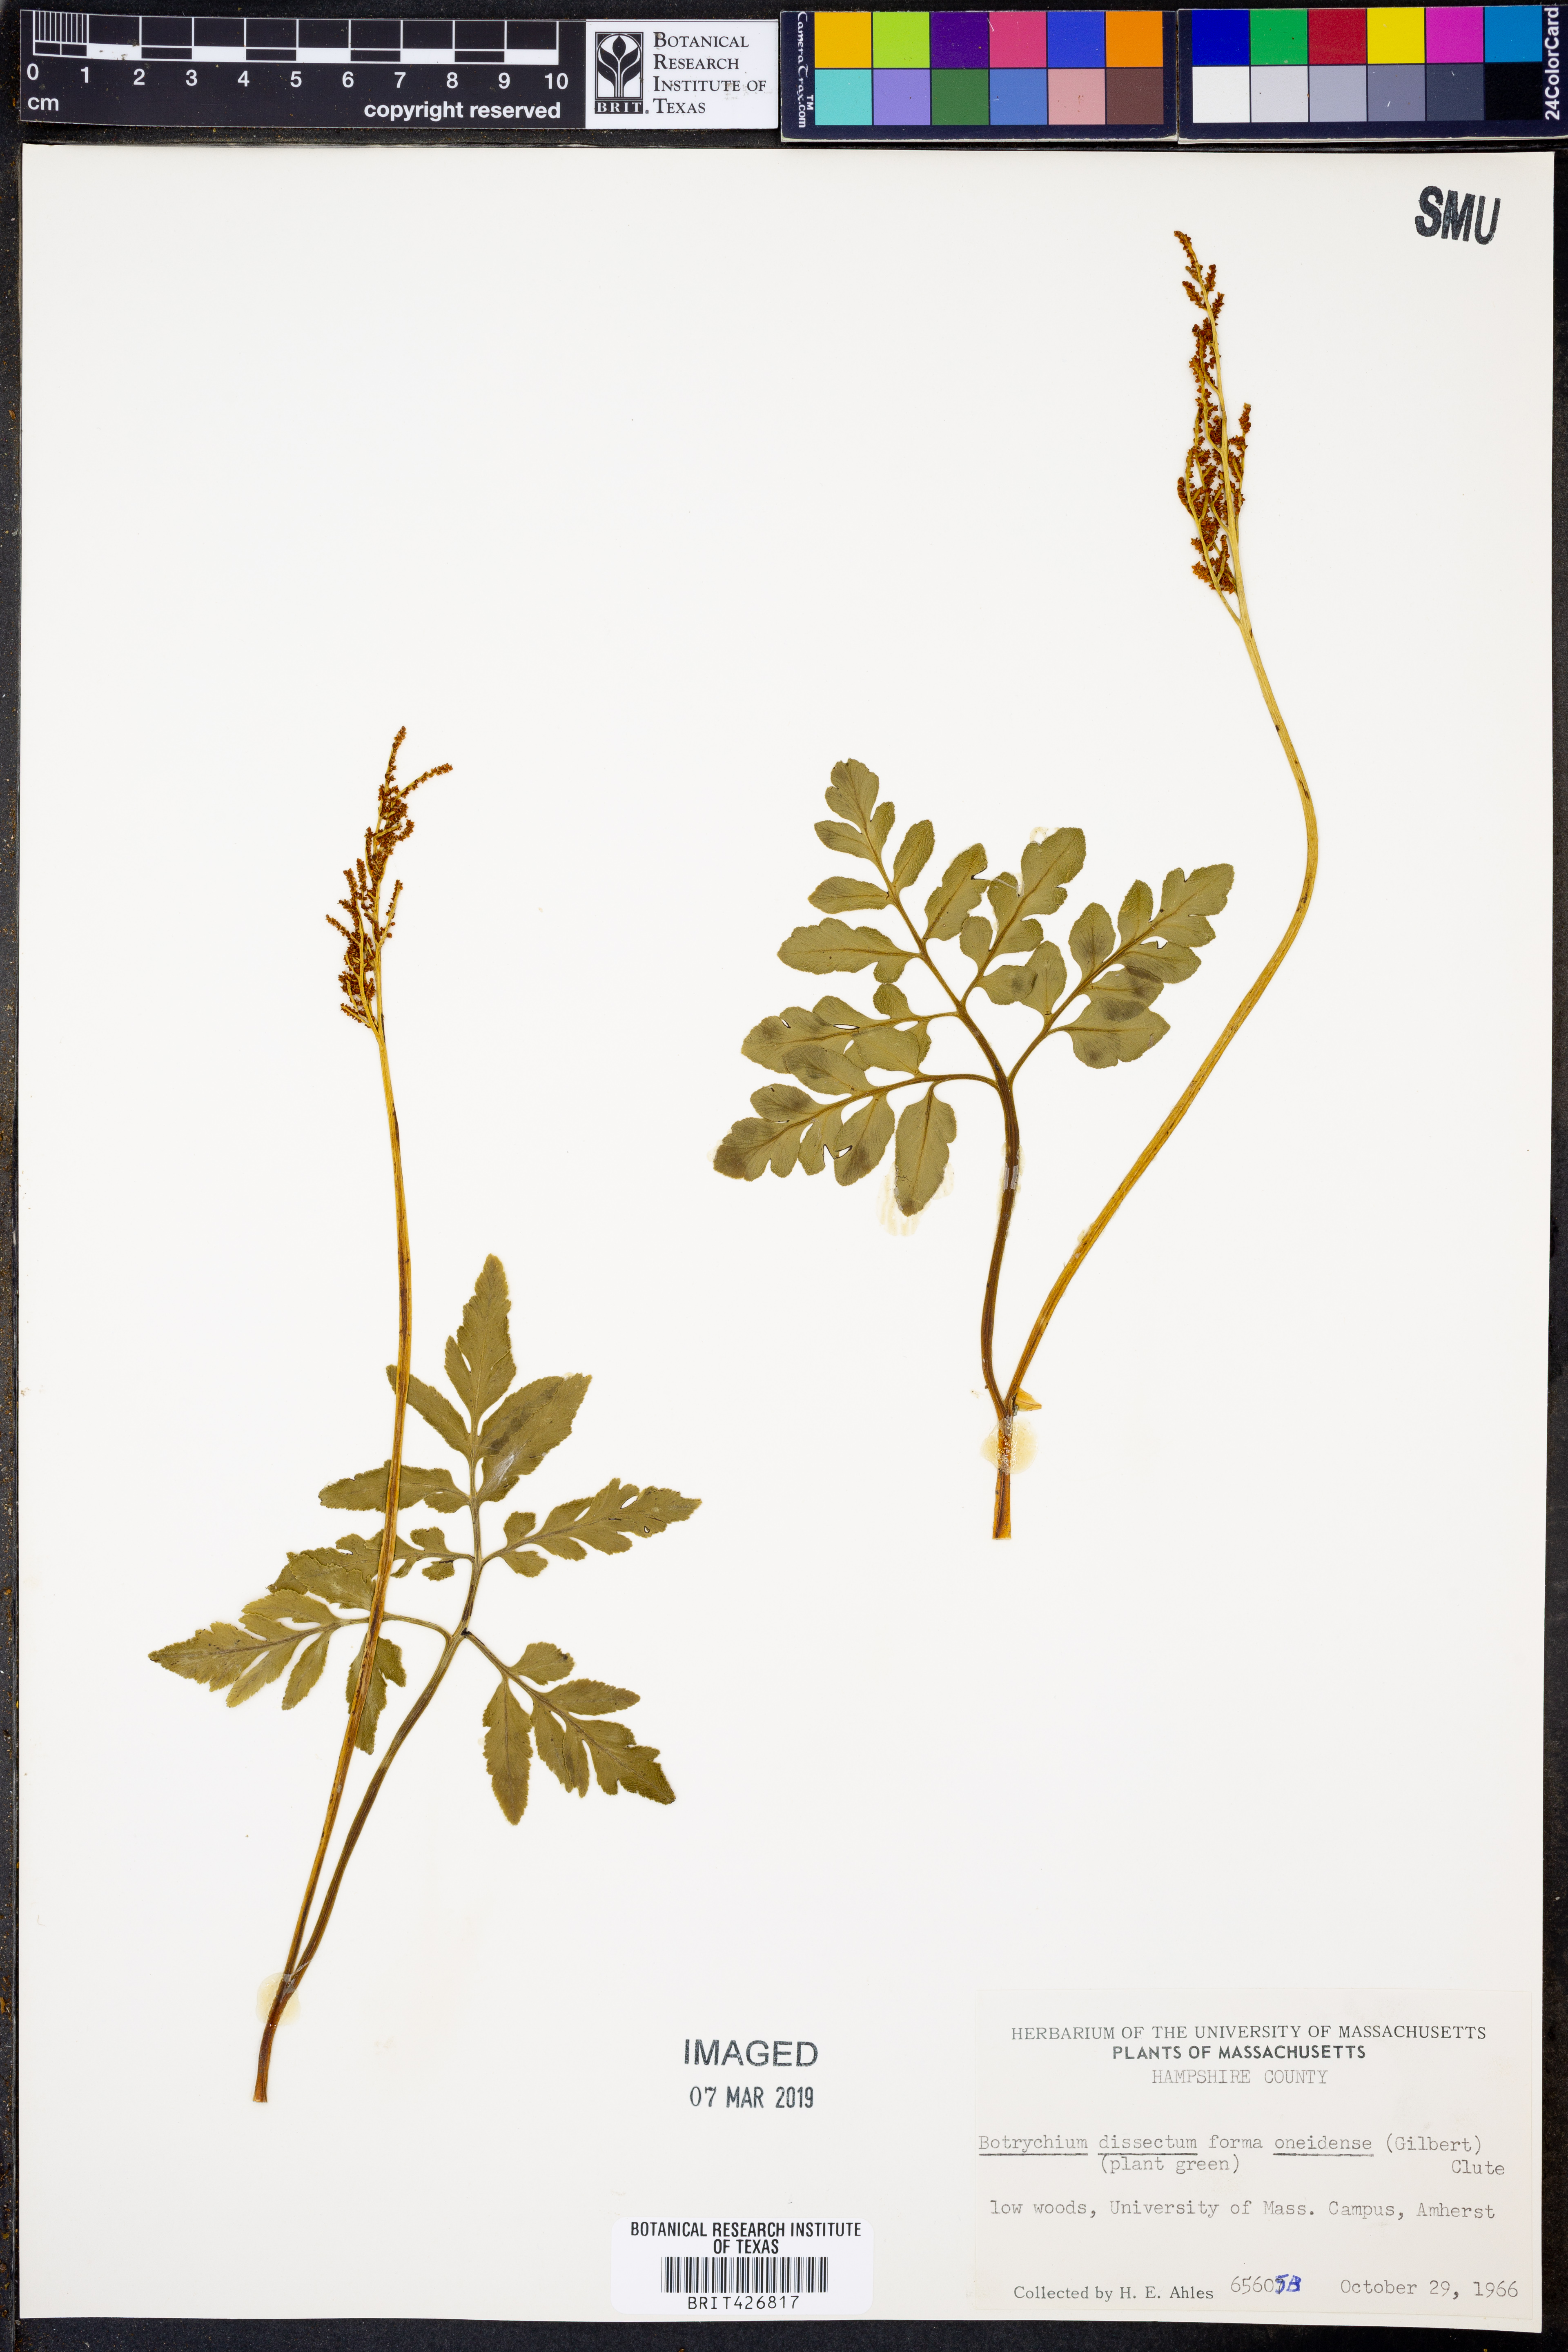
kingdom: Plantae
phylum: Tracheophyta
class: Polypodiopsida
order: Ophioglossales
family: Ophioglossaceae
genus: Sceptridium
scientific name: Sceptridium oneidense
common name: Blunt-lobed grapefern
